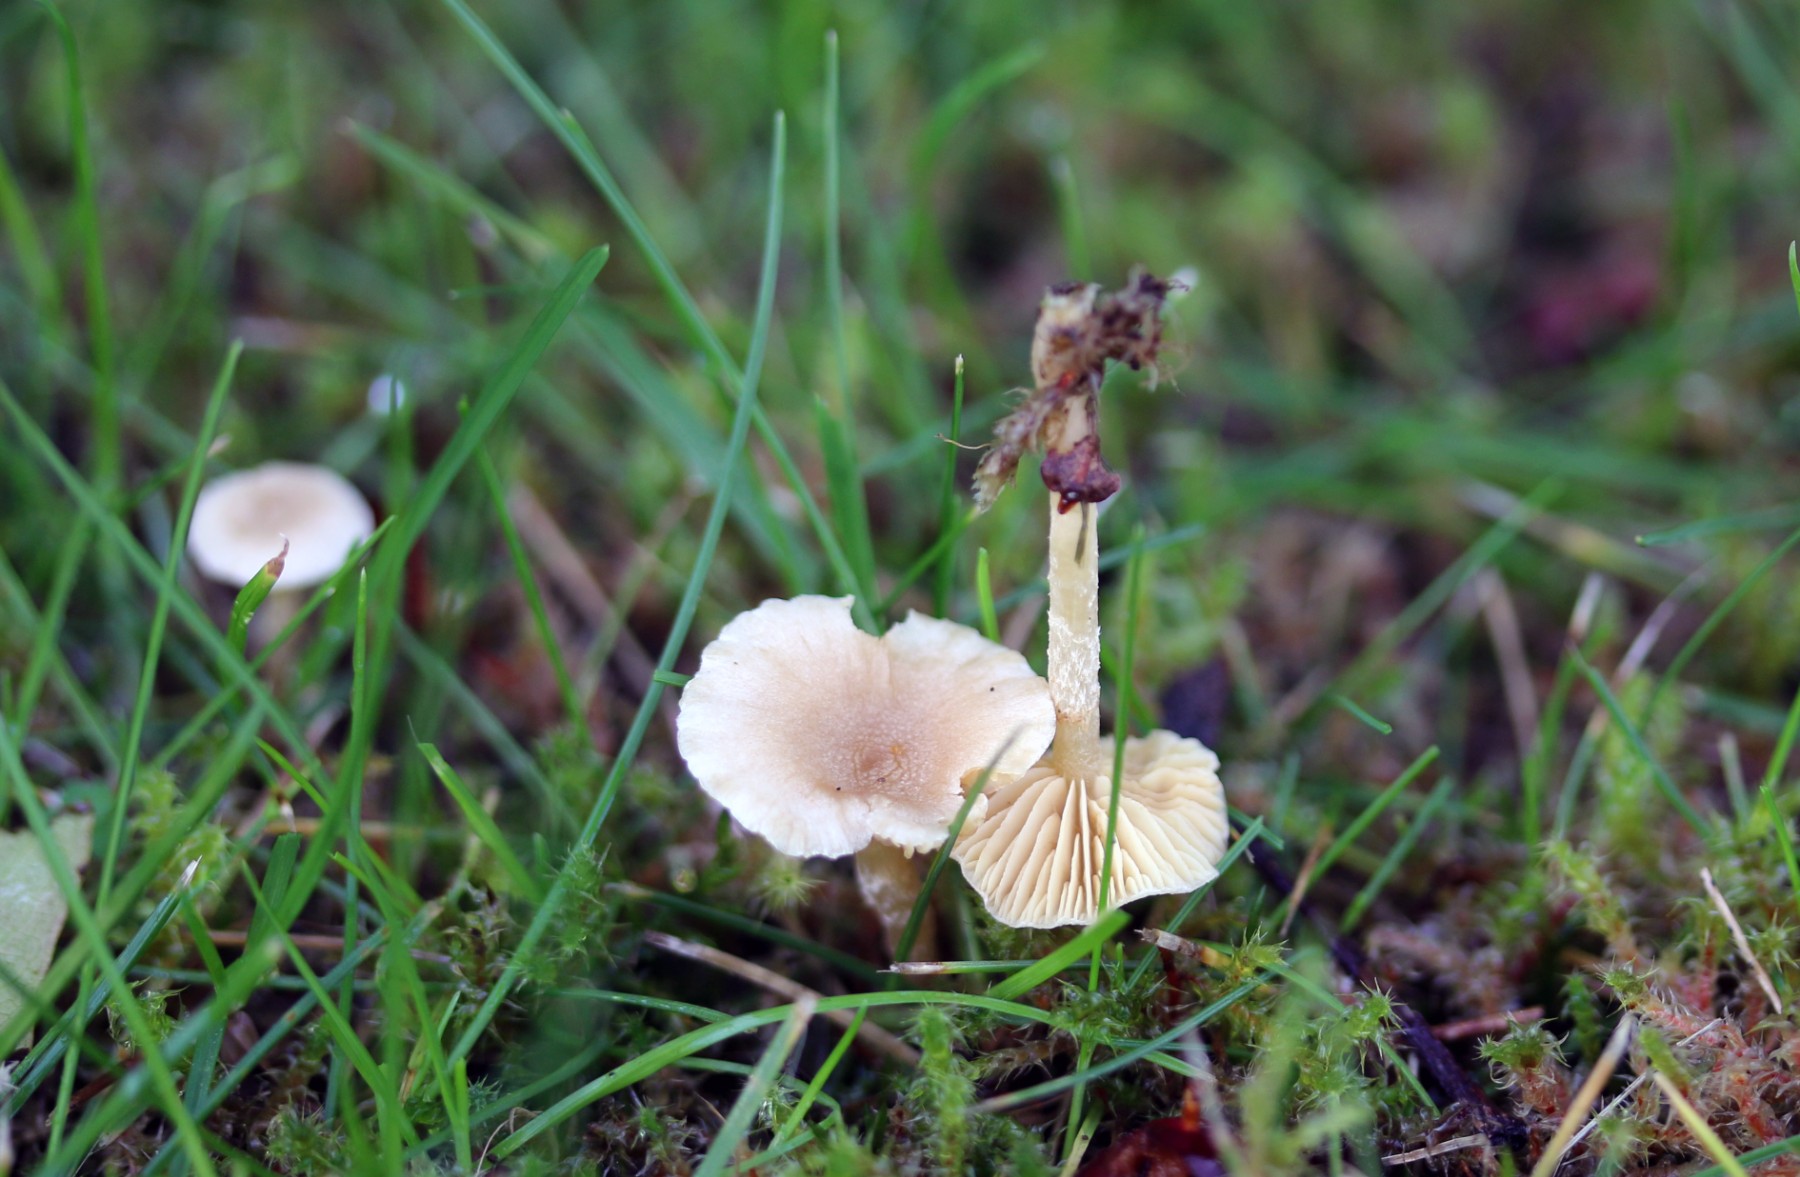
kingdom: Fungi
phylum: Basidiomycota
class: Agaricomycetes
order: Agaricales
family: Tubariaceae
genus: Tubaria
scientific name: Tubaria dispersa
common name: tjørne-fnughat
